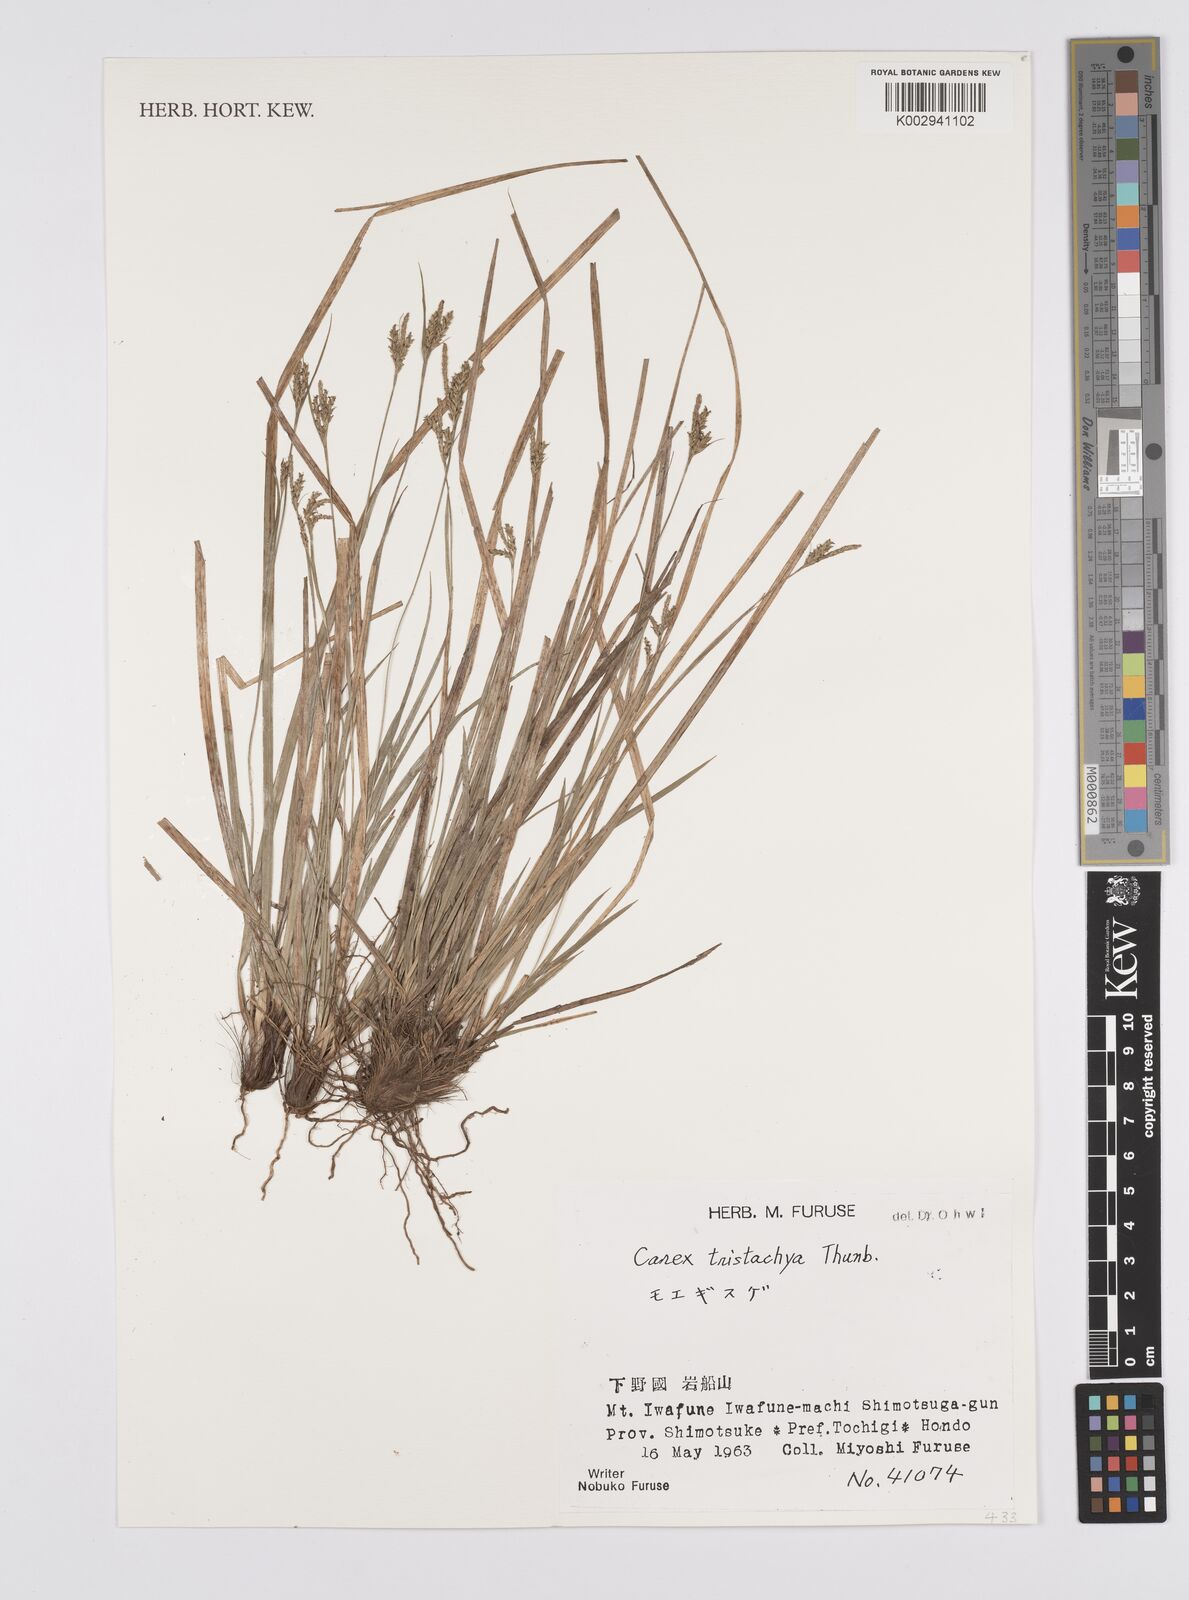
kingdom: Plantae
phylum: Tracheophyta
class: Liliopsida
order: Poales
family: Cyperaceae
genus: Carex
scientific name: Carex tristachya
